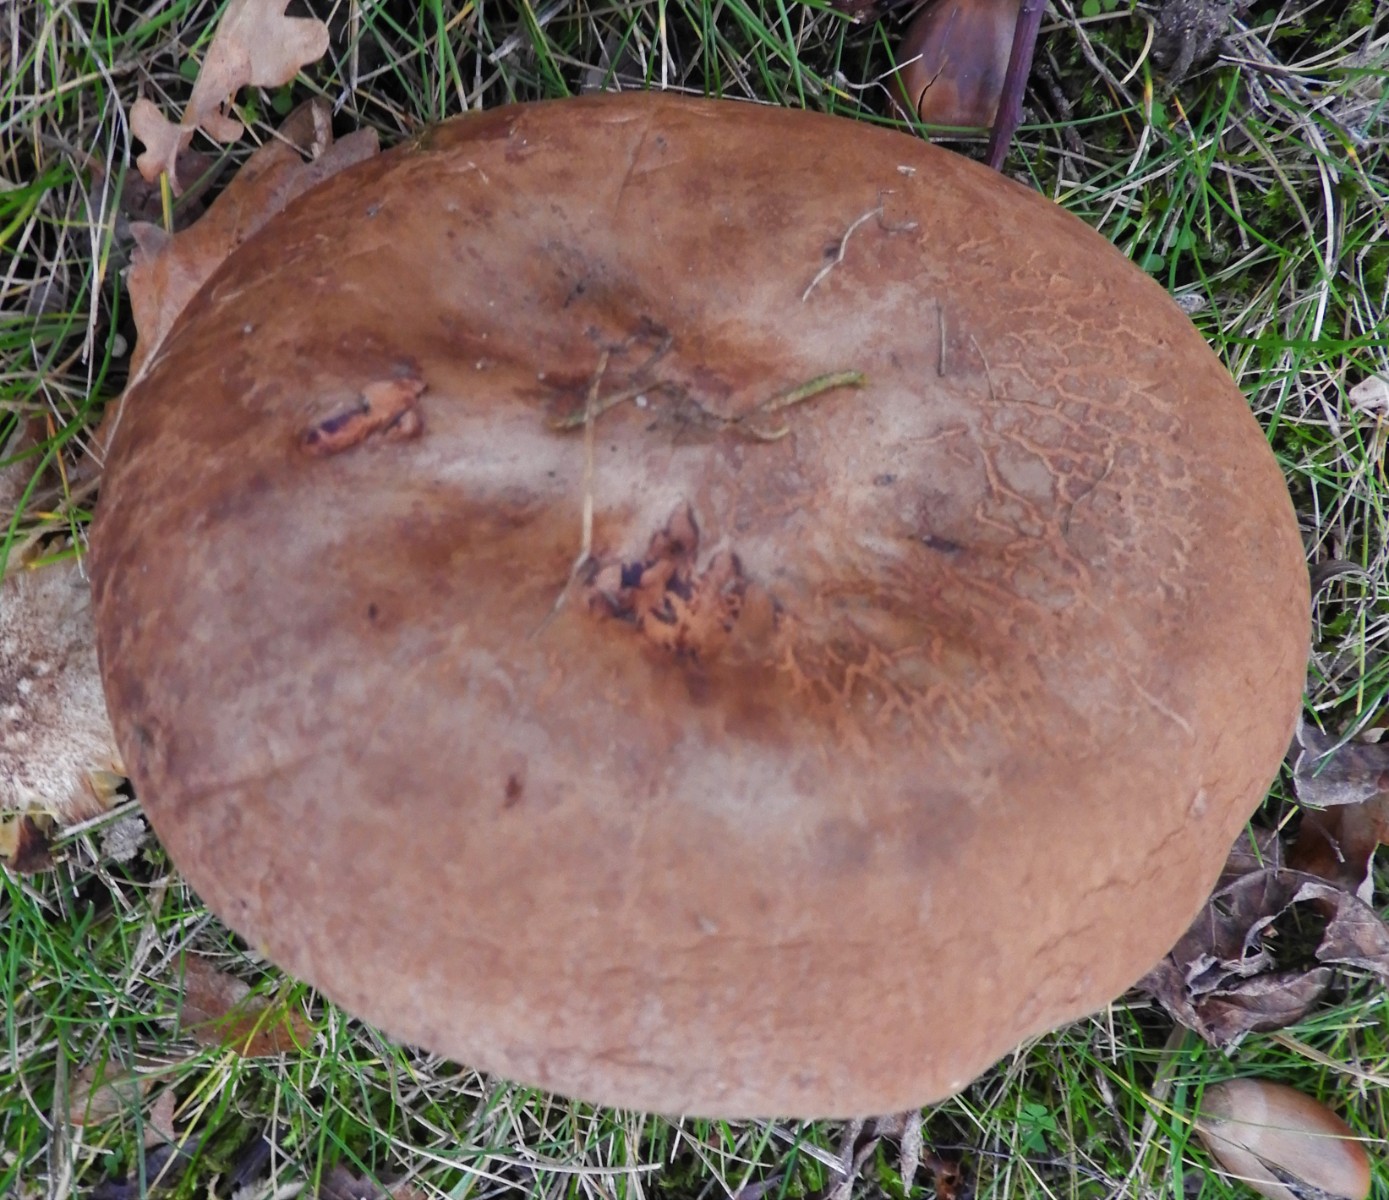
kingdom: Fungi
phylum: Basidiomycota
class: Agaricomycetes
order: Boletales
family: Paxillaceae
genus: Paxillus
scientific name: Paxillus
